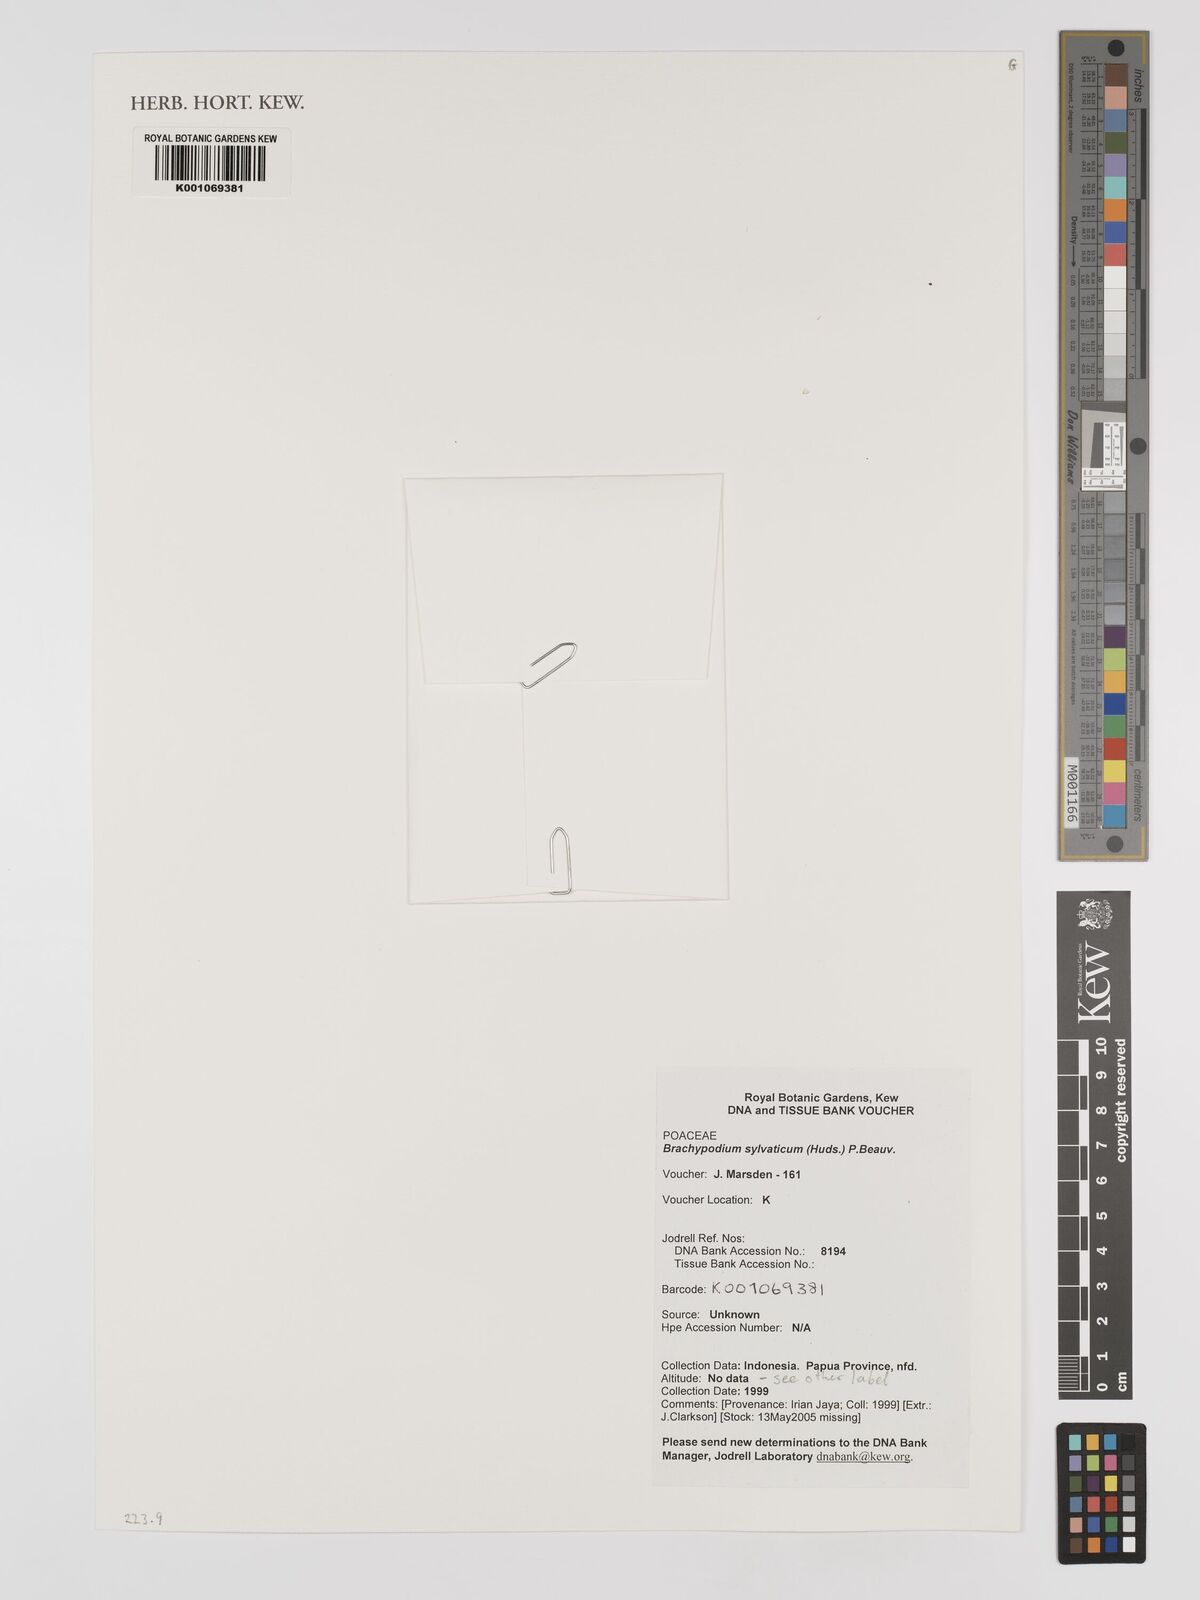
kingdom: Plantae
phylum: Tracheophyta
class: Liliopsida
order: Poales
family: Poaceae
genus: Brachypodium
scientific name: Brachypodium sylvaticum
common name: False-brome
